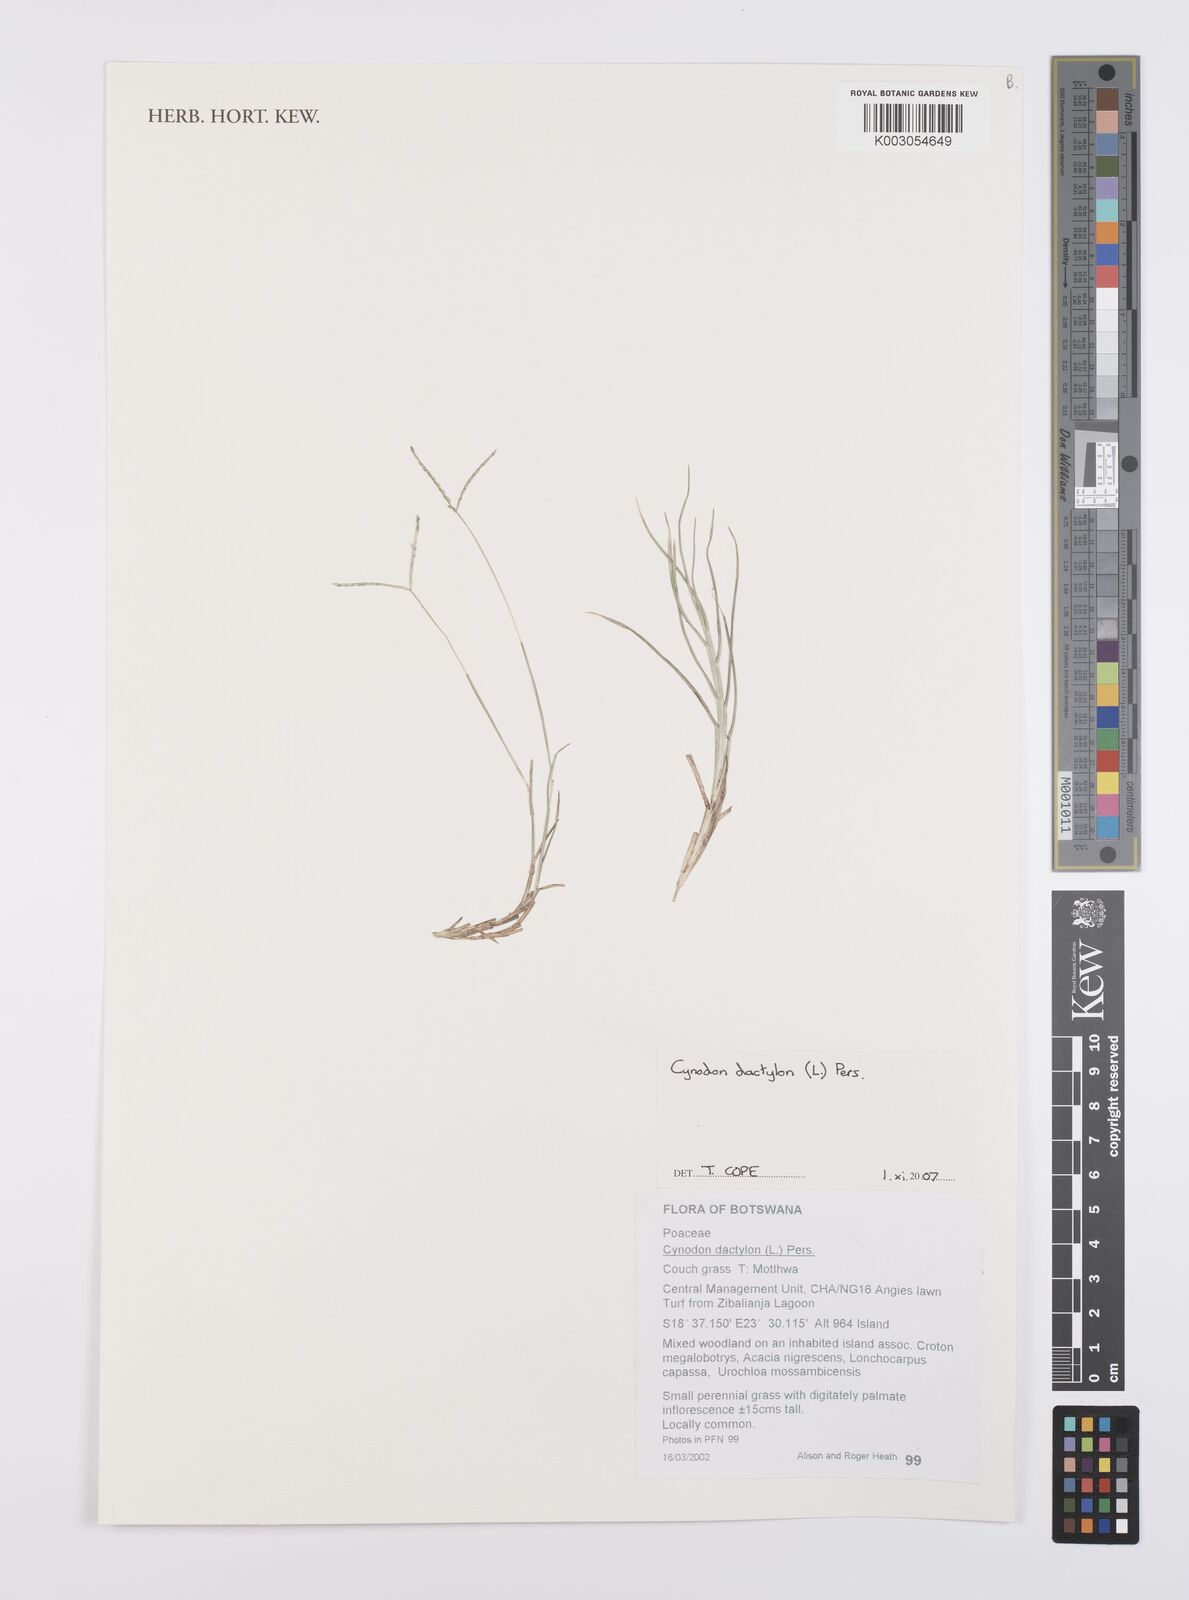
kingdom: Plantae
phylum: Tracheophyta
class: Liliopsida
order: Poales
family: Poaceae
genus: Cynodon
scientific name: Cynodon dactylon
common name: Bermuda grass
